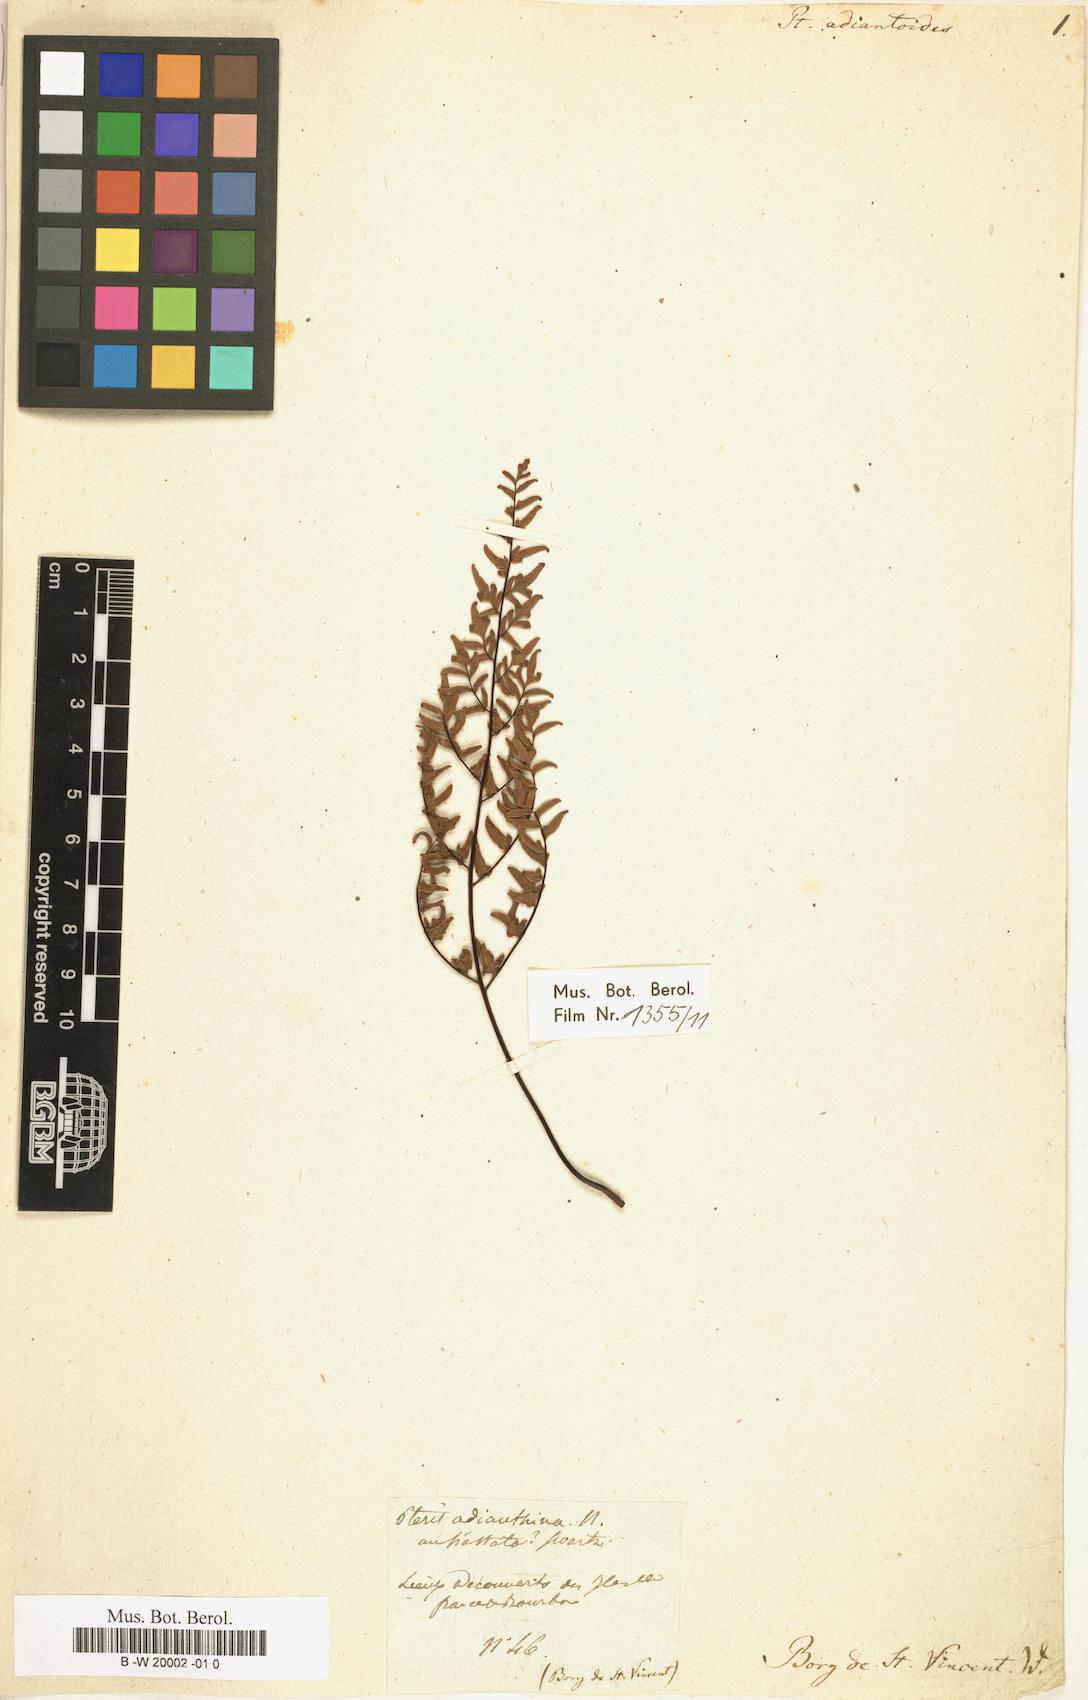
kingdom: Plantae
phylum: Tracheophyta
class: Polypodiopsida
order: Polypodiales
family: Pteridaceae
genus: Pteris
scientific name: Pteris adiantoides
